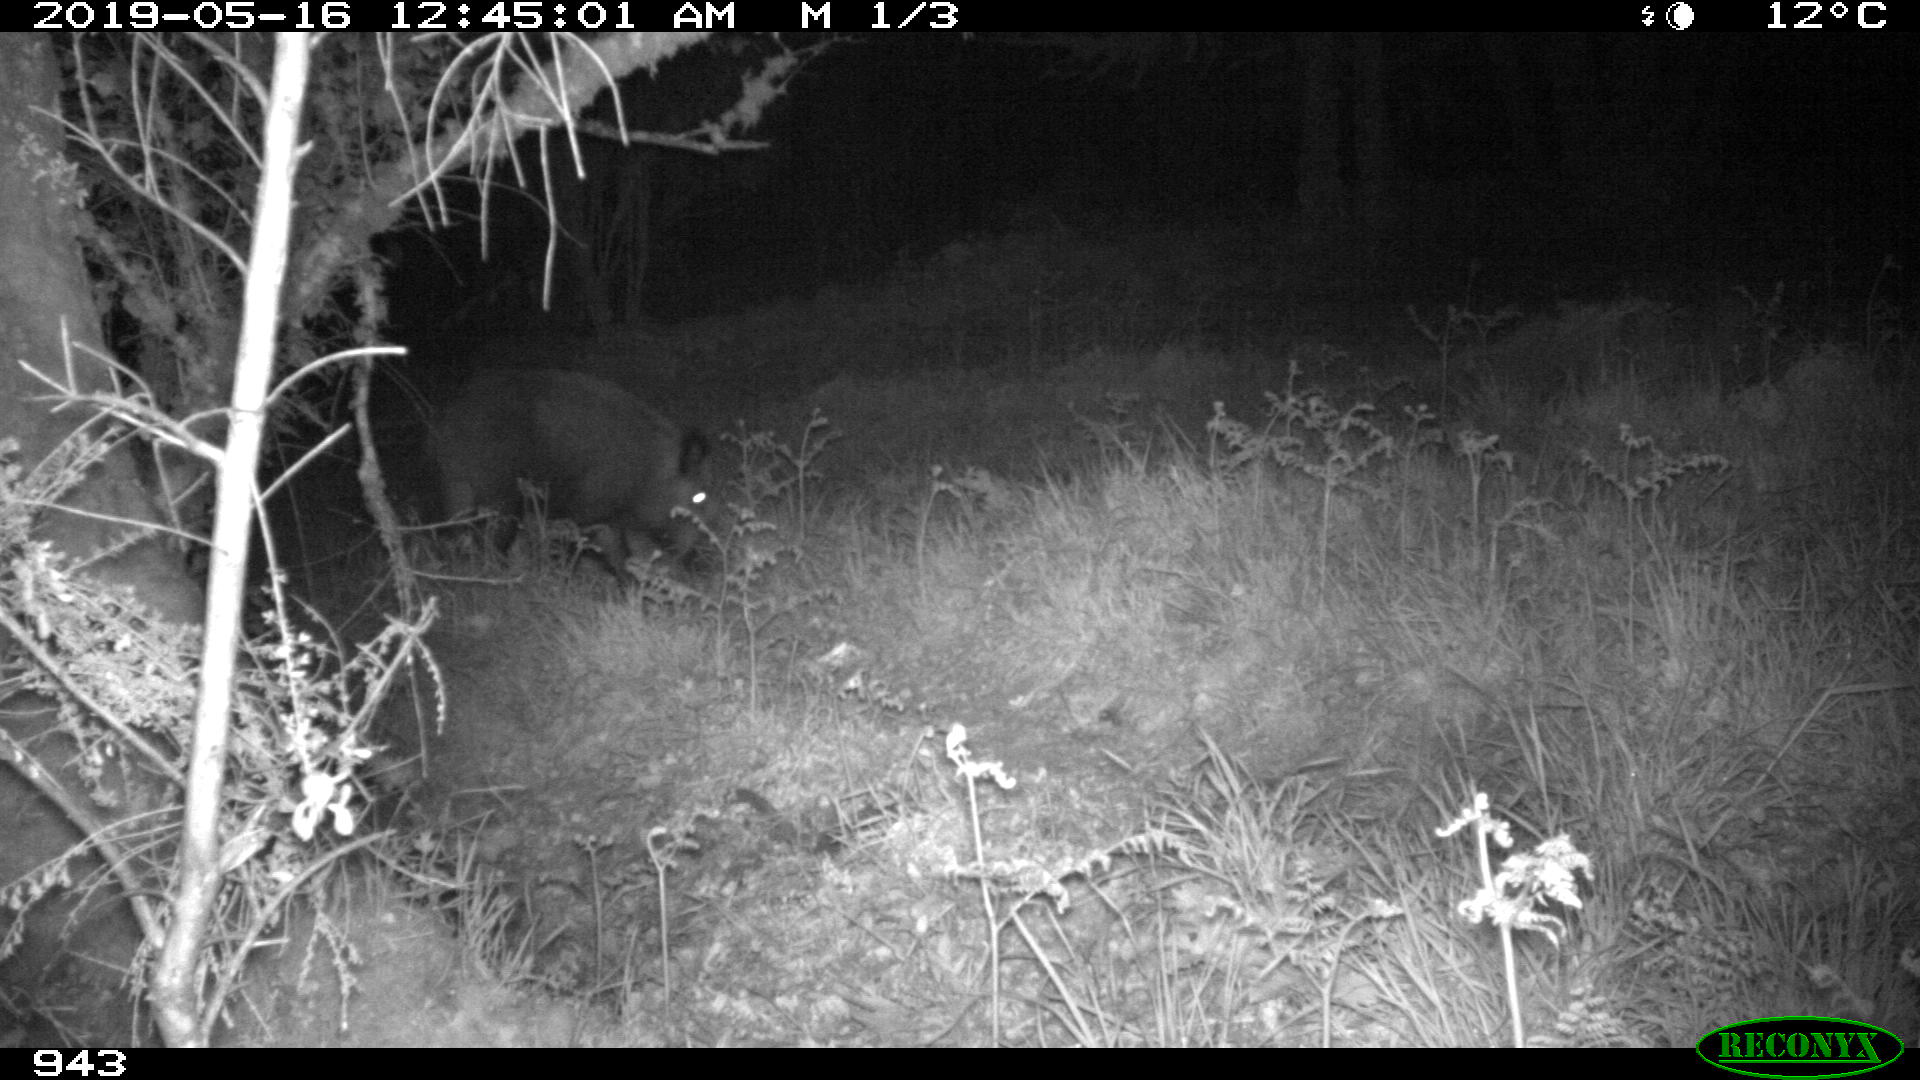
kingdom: Animalia
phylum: Chordata
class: Mammalia
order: Artiodactyla
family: Suidae
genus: Sus
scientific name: Sus scrofa
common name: Wild boar
